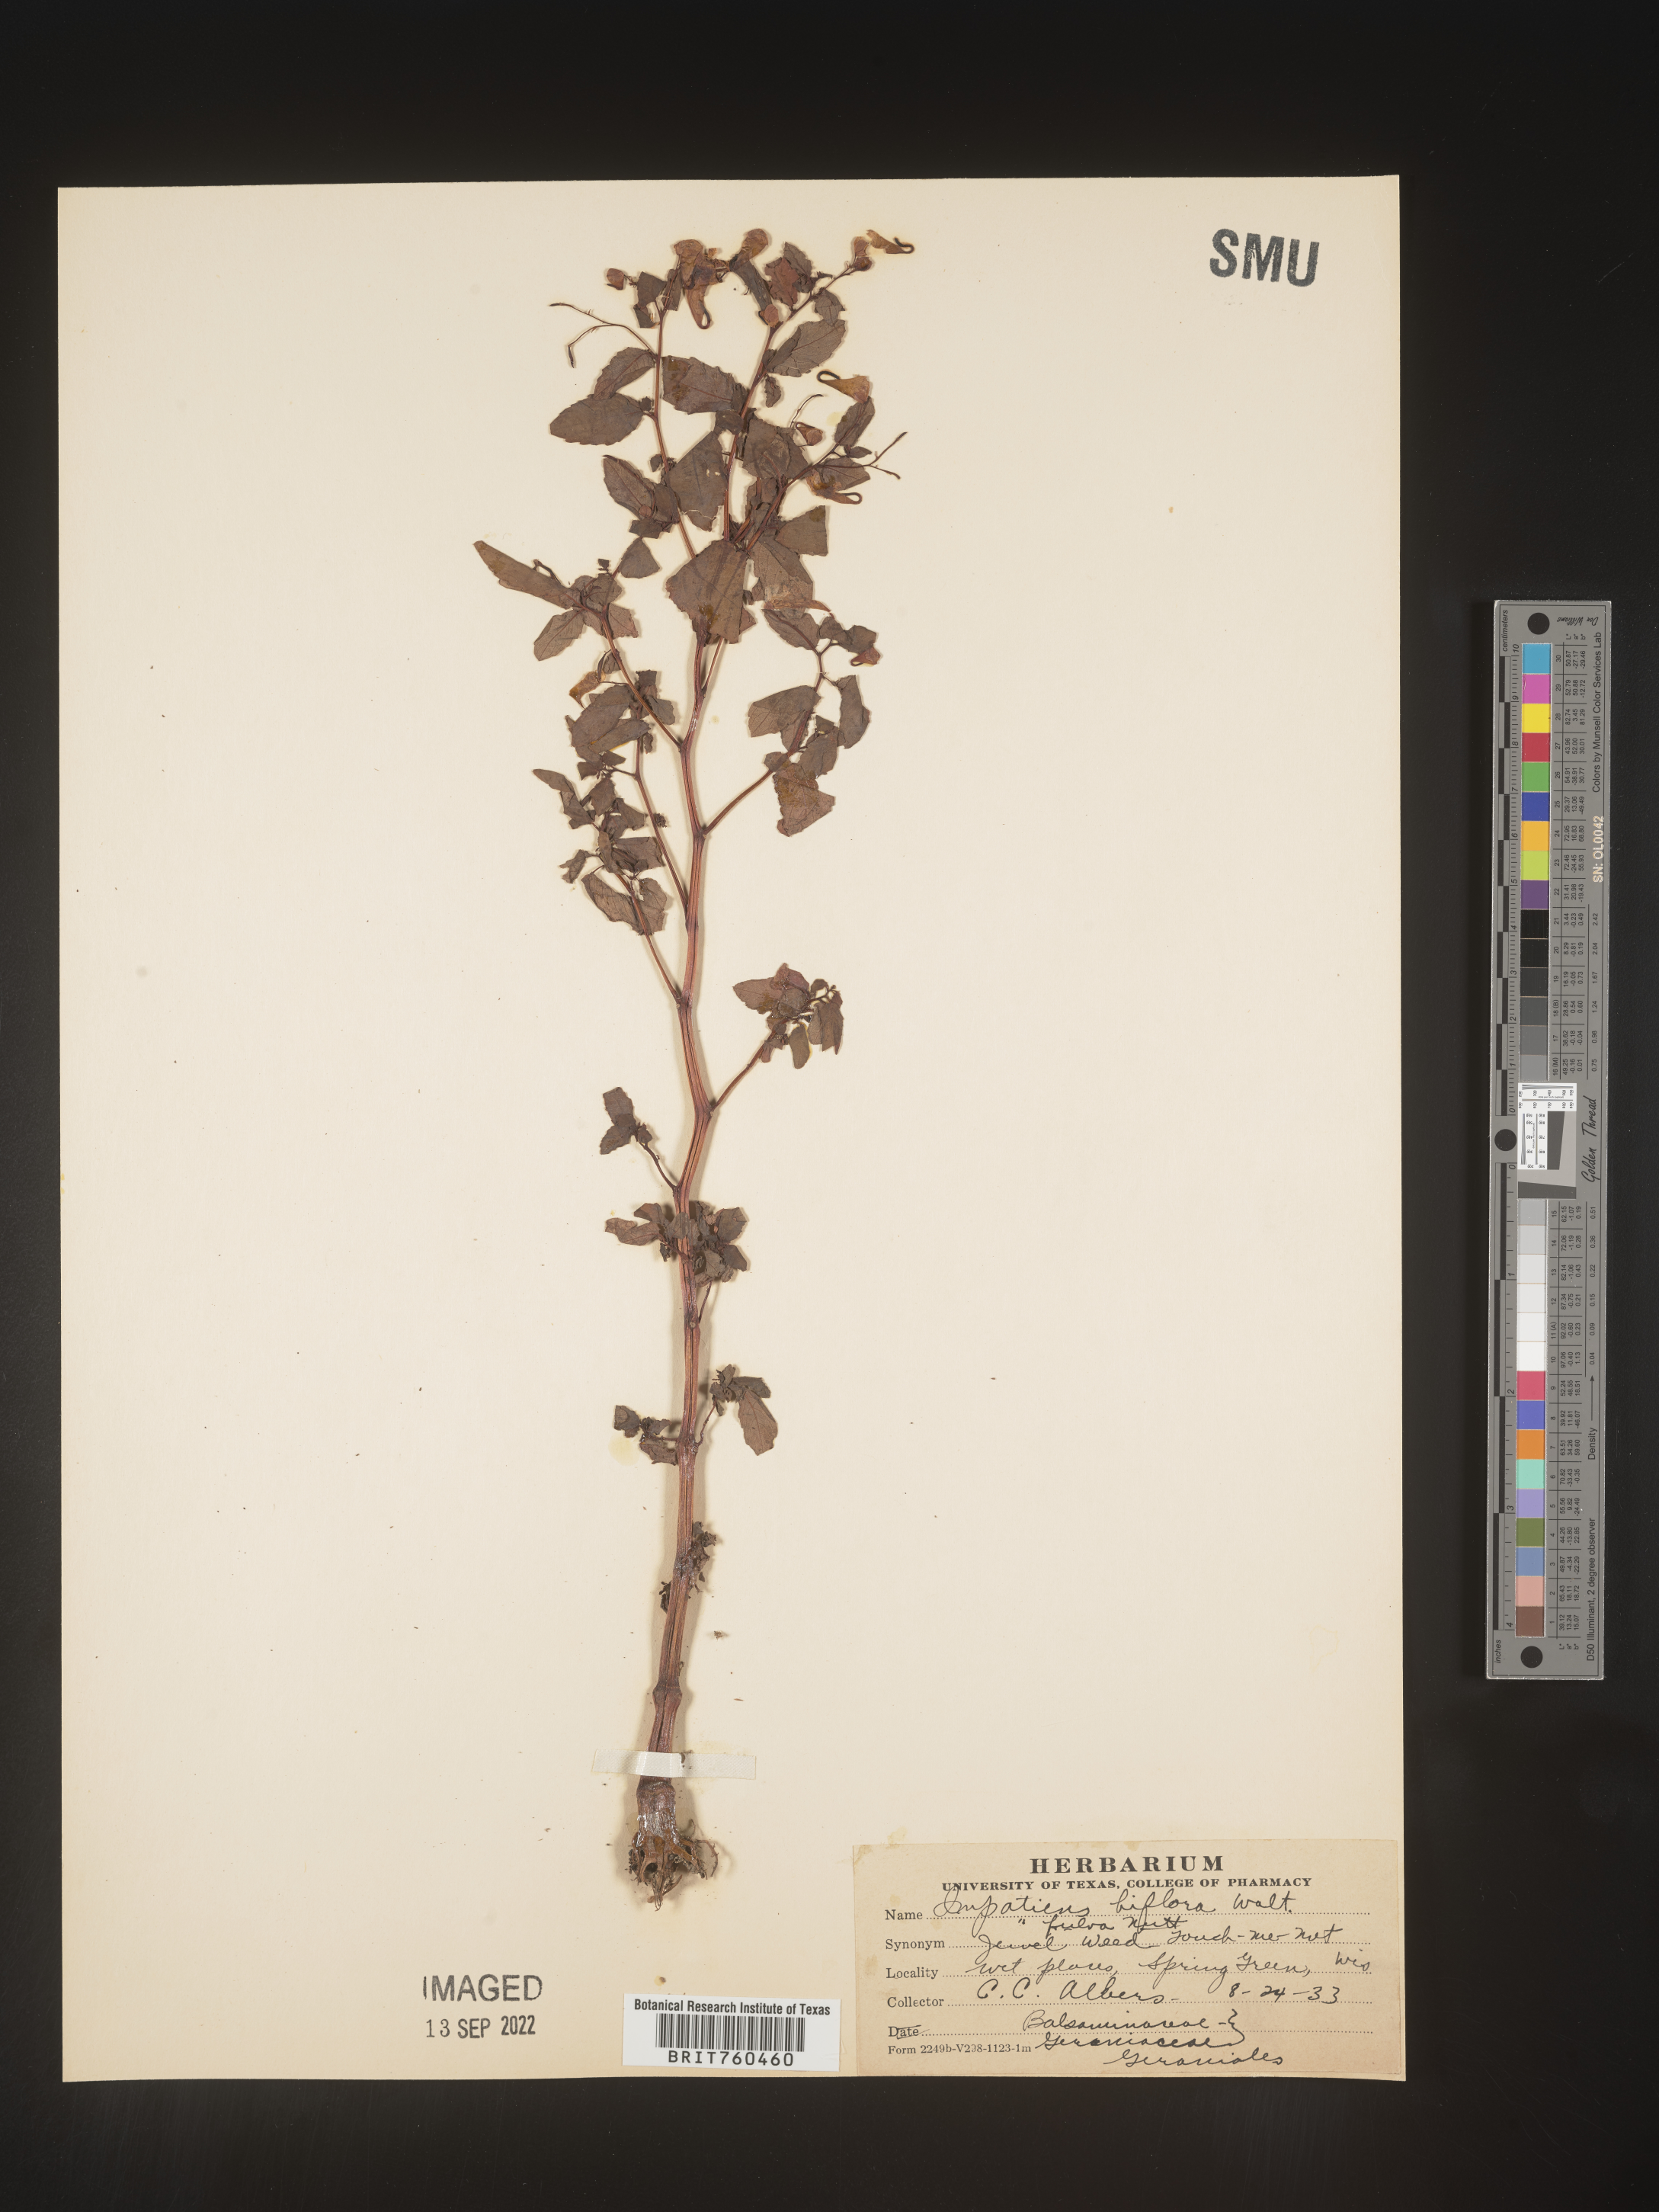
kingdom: Plantae
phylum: Tracheophyta
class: Magnoliopsida
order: Ericales
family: Balsaminaceae
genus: Impatiens
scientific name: Impatiens capensis
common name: Orange balsam
